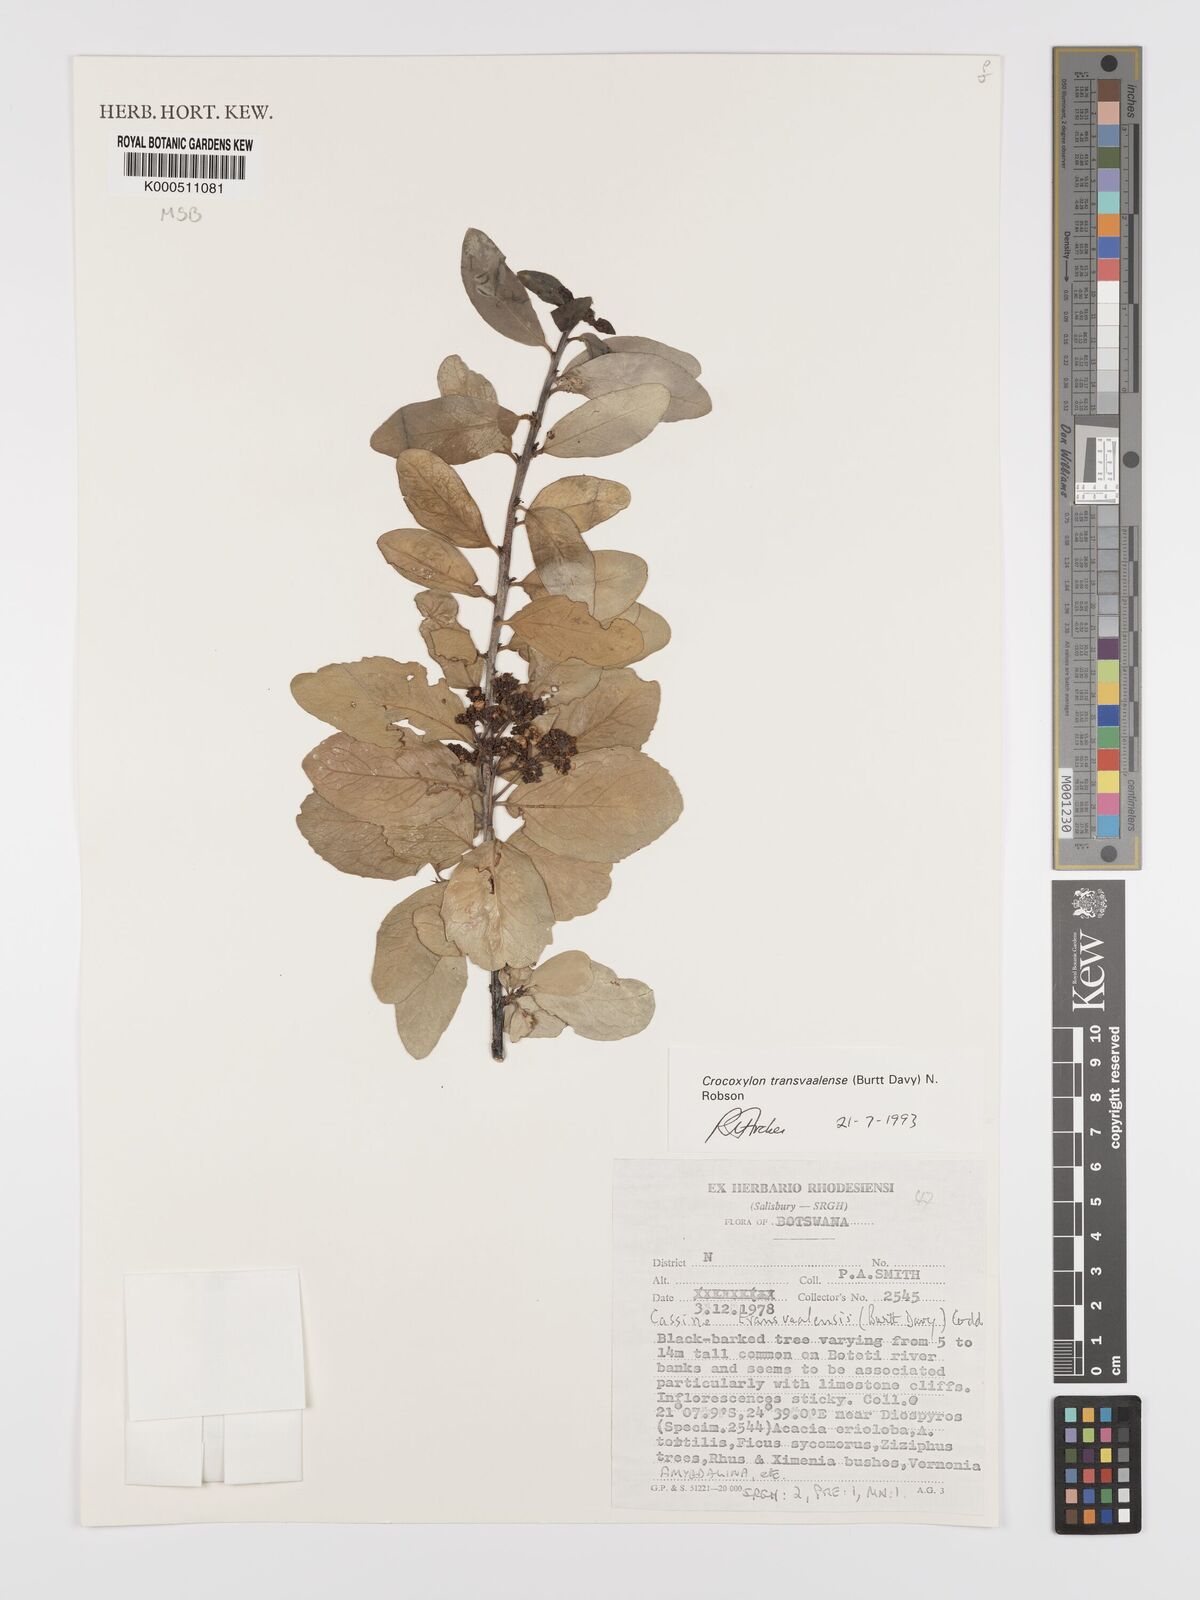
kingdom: Plantae
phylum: Tracheophyta
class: Magnoliopsida
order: Celastrales
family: Celastraceae
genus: Elaeodendron
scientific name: Elaeodendron transvaalense
